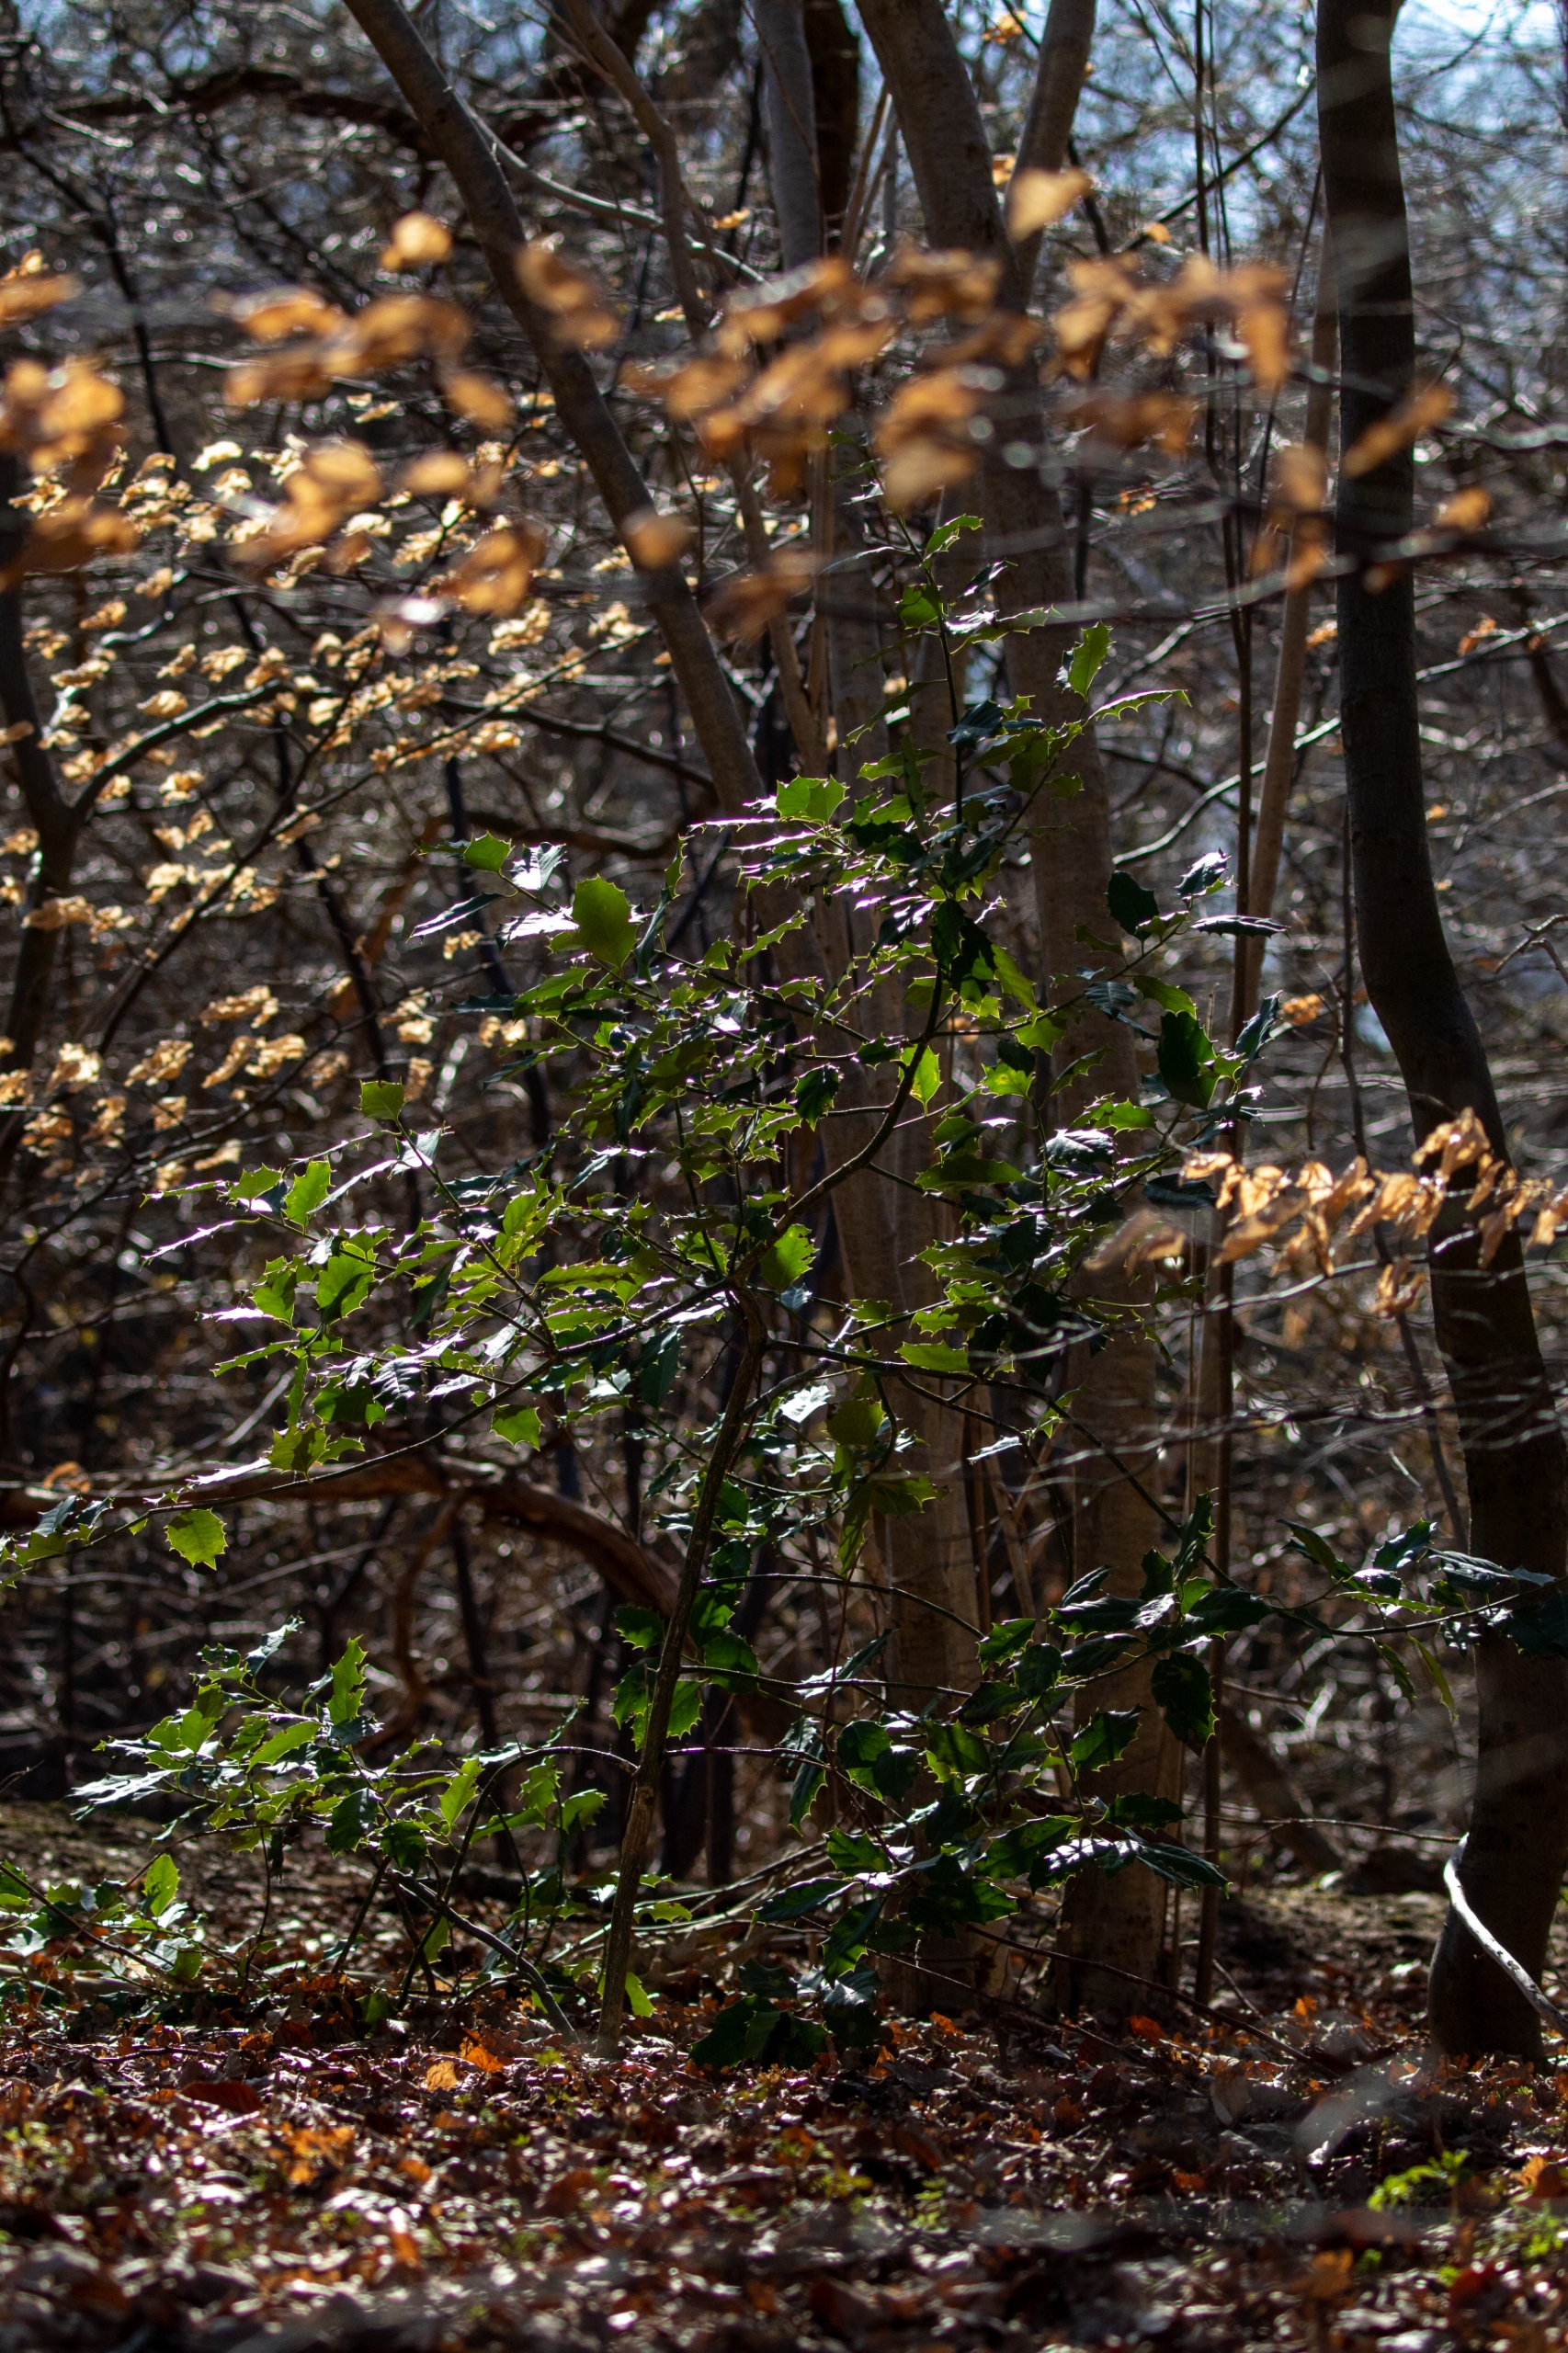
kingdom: Plantae
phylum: Tracheophyta
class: Magnoliopsida
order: Aquifoliales
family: Aquifoliaceae
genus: Ilex
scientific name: Ilex aquifolium
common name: Kristtorn
